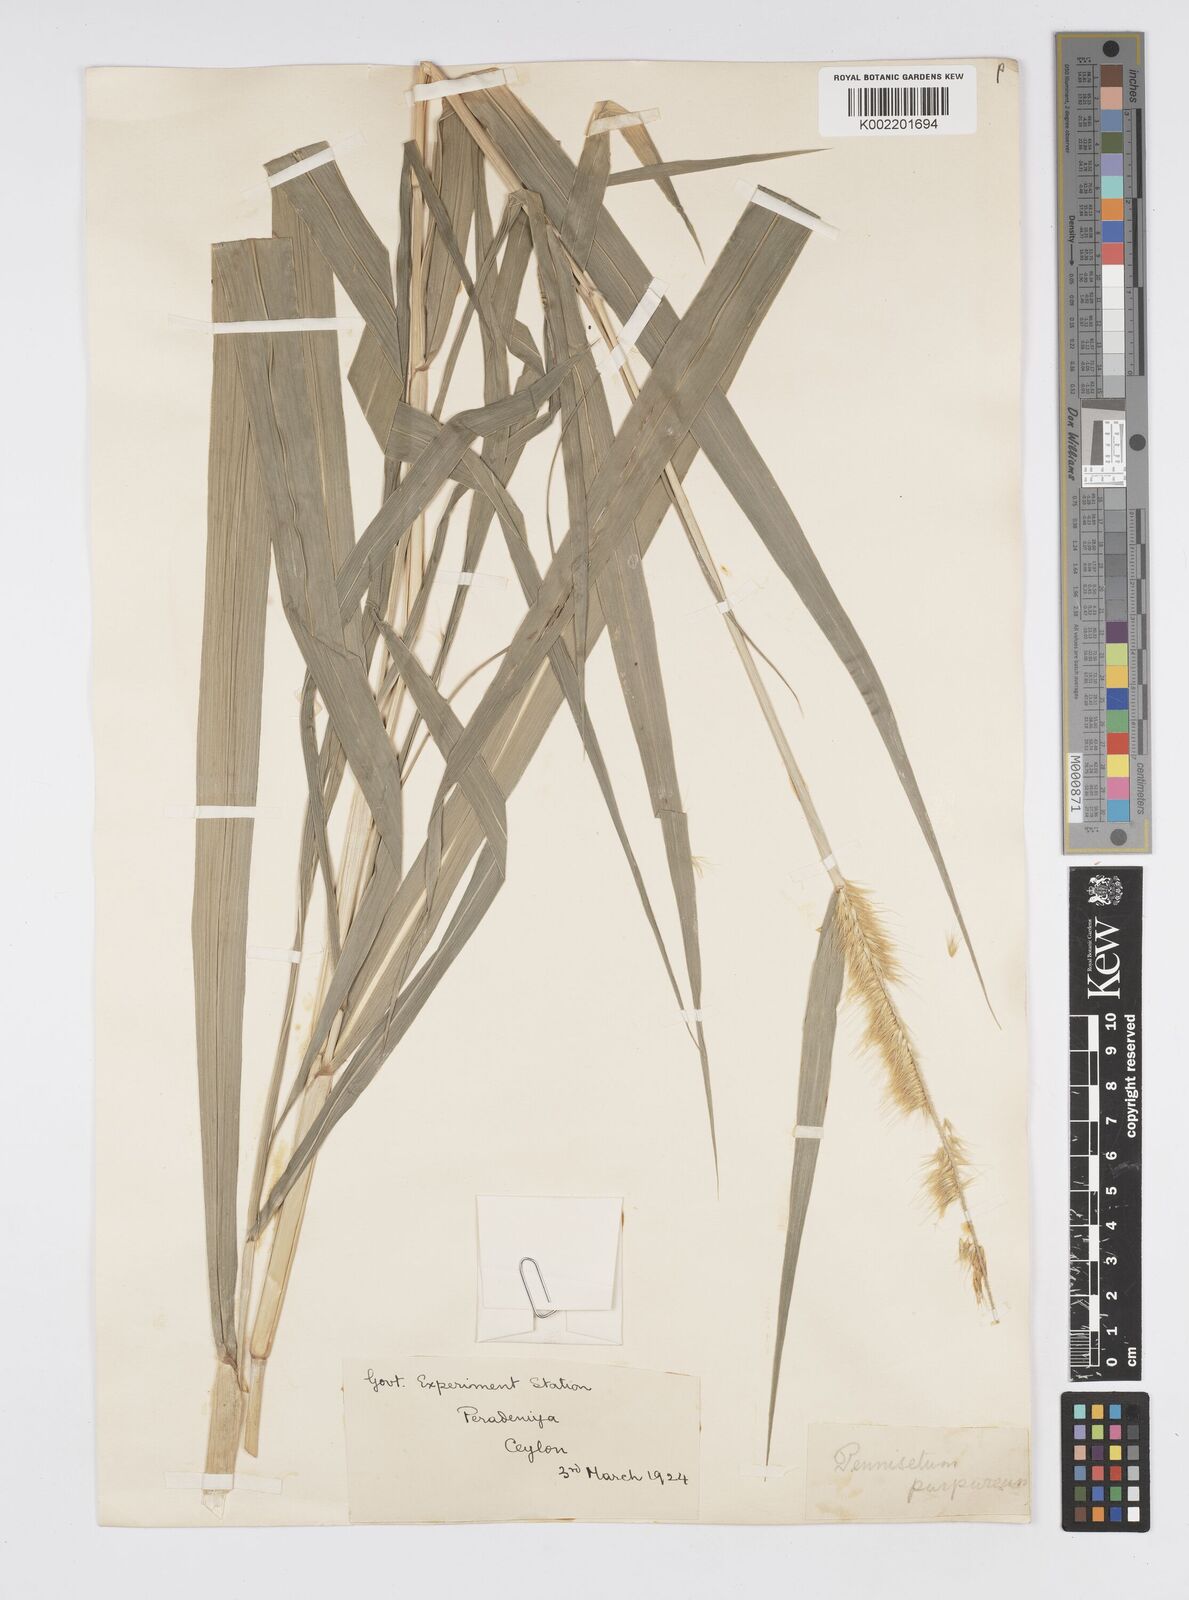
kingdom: Plantae
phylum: Tracheophyta
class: Liliopsida
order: Poales
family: Poaceae
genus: Cenchrus
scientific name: Cenchrus purpureus
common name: Elephant grass
